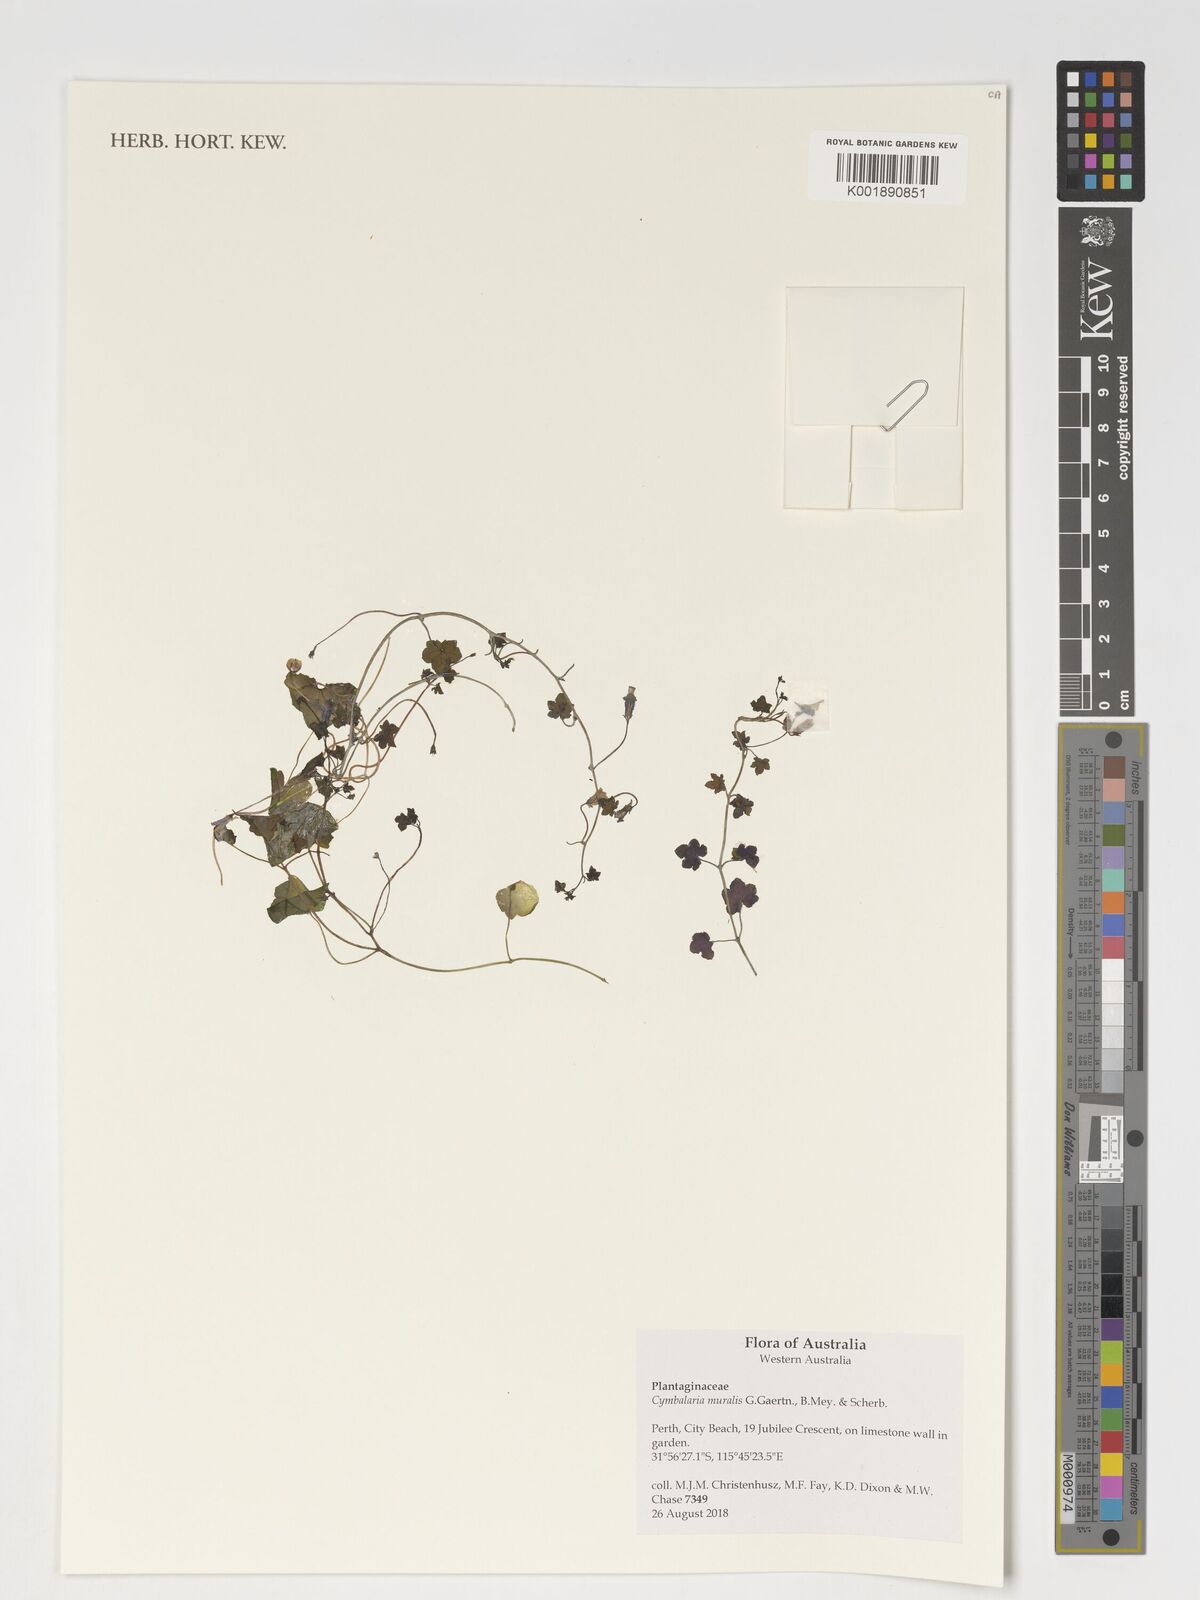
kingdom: Plantae
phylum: Tracheophyta
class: Magnoliopsida
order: Lamiales
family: Plantaginaceae
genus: Cymbalaria
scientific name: Cymbalaria muralis
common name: Ivy-leaved toadflax
